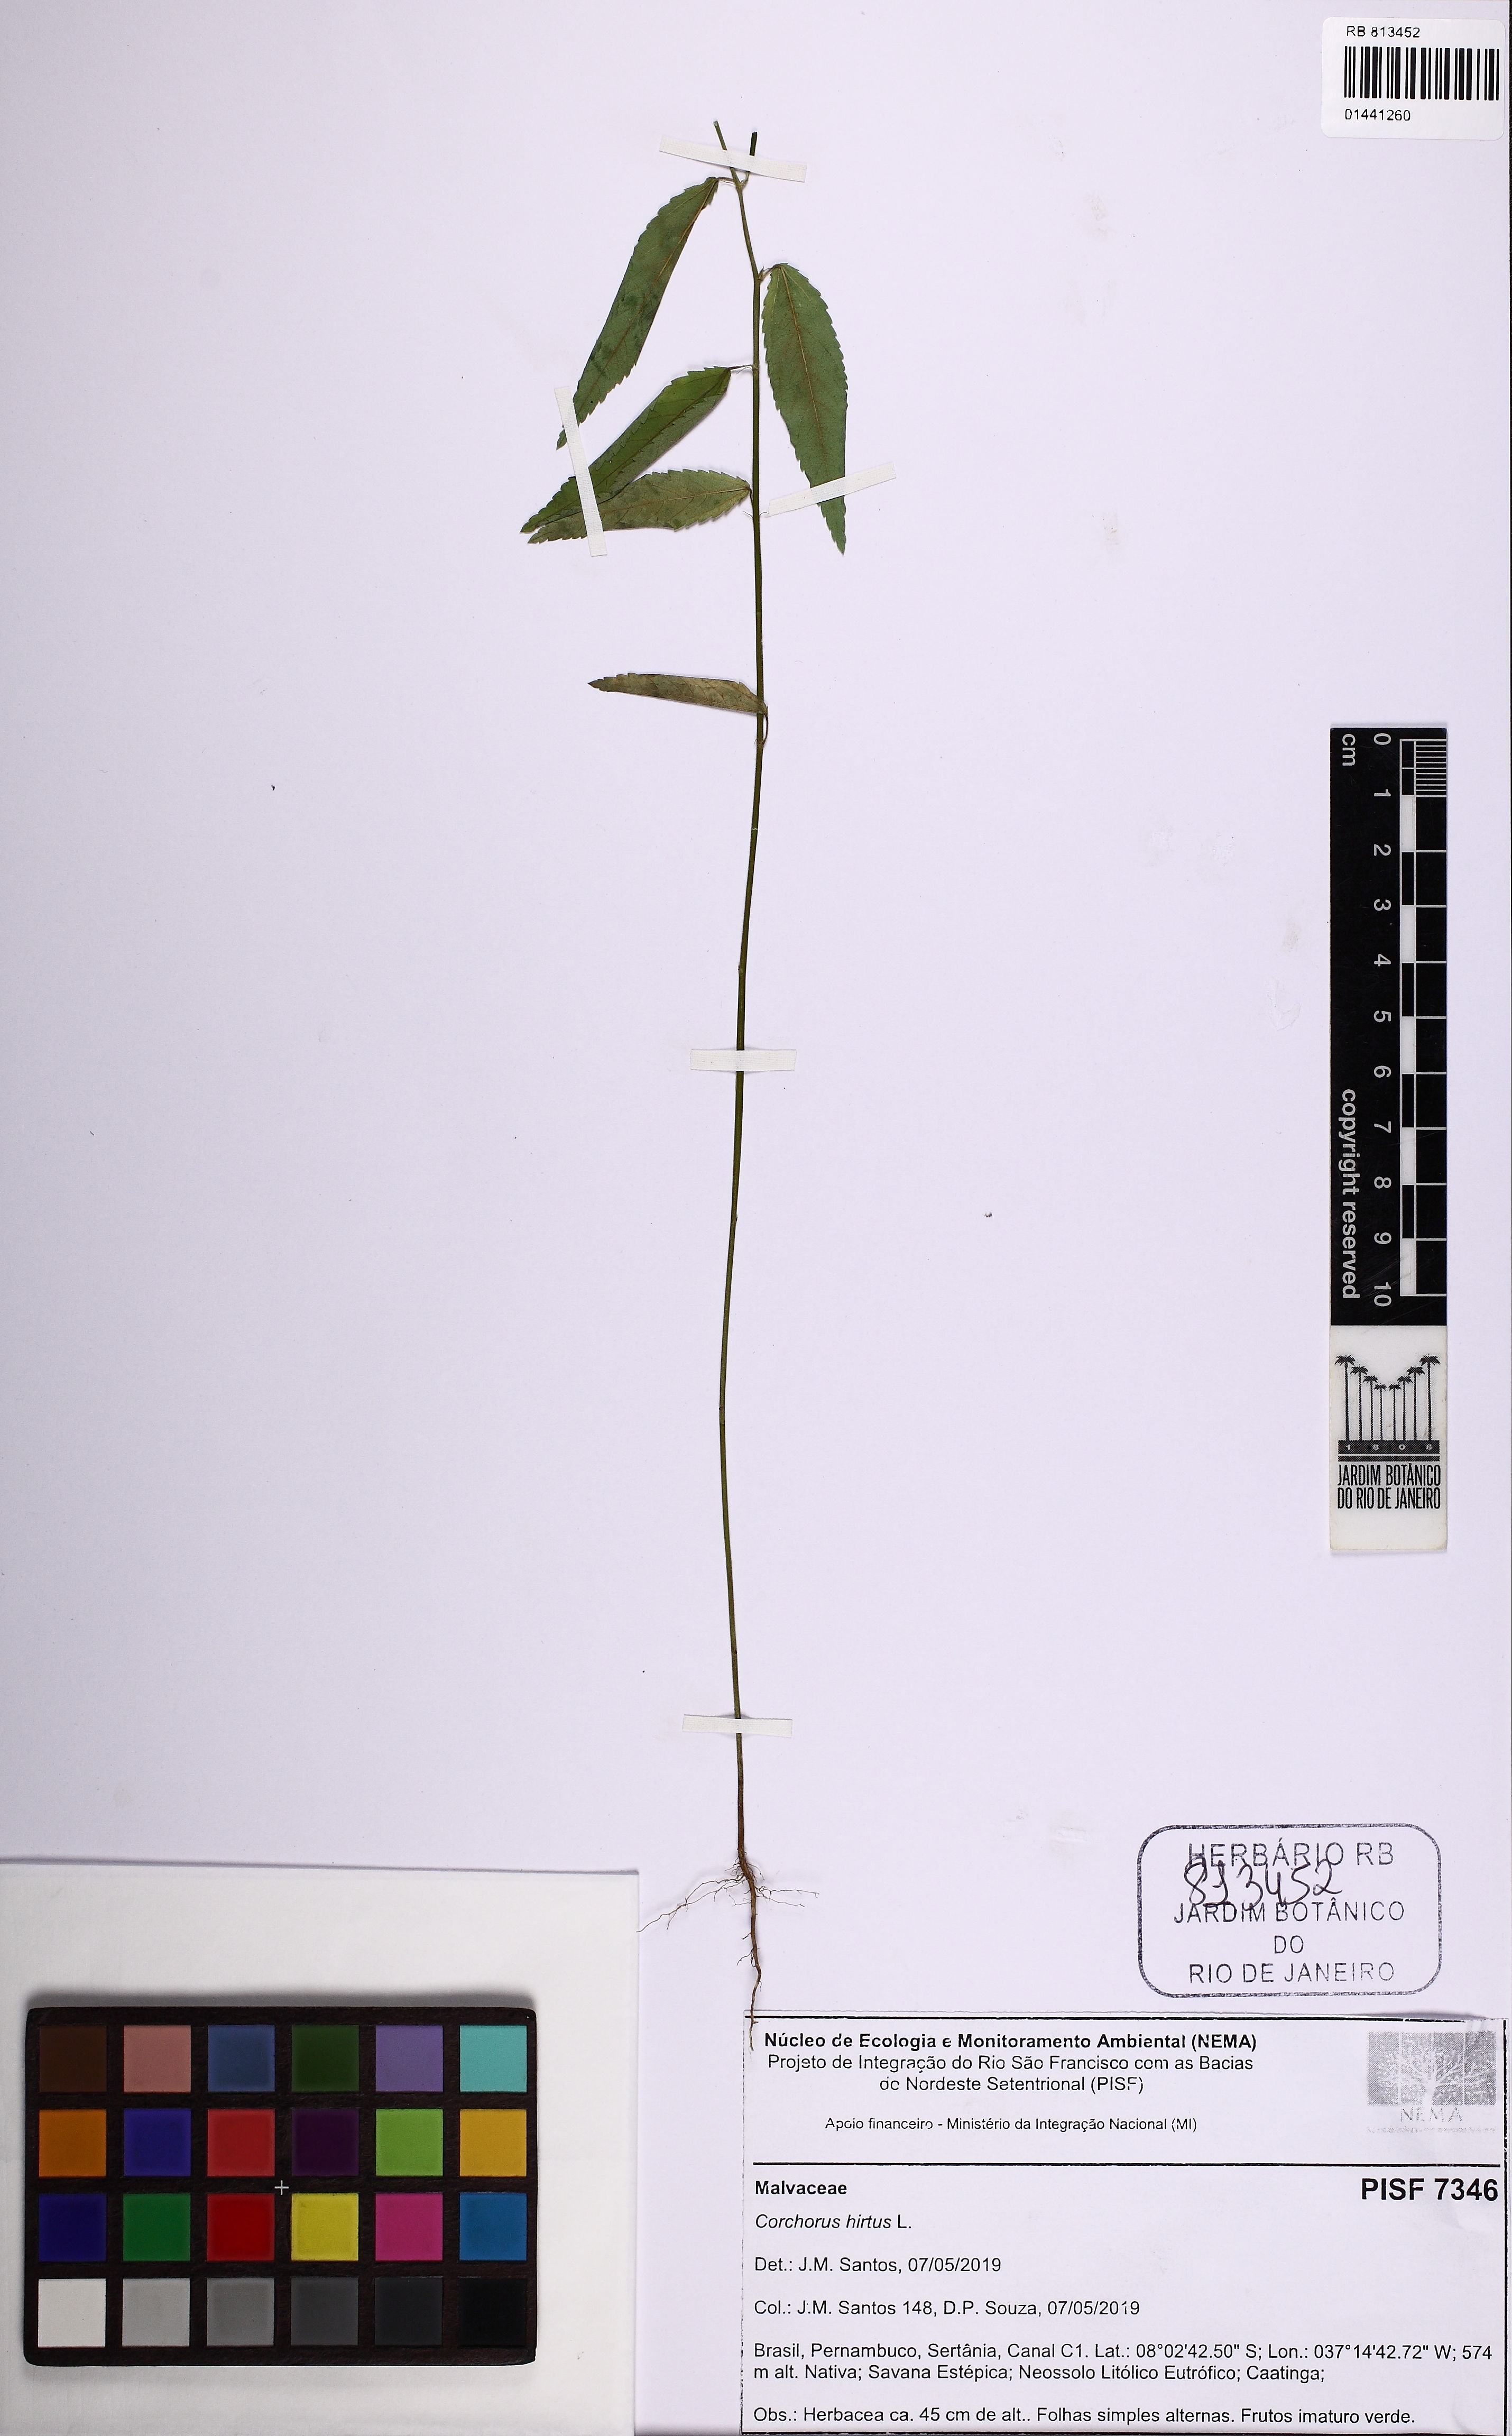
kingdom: Plantae
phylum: Tracheophyta
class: Magnoliopsida
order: Malvales
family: Malvaceae
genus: Corchorus
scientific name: Corchorus hirtus
